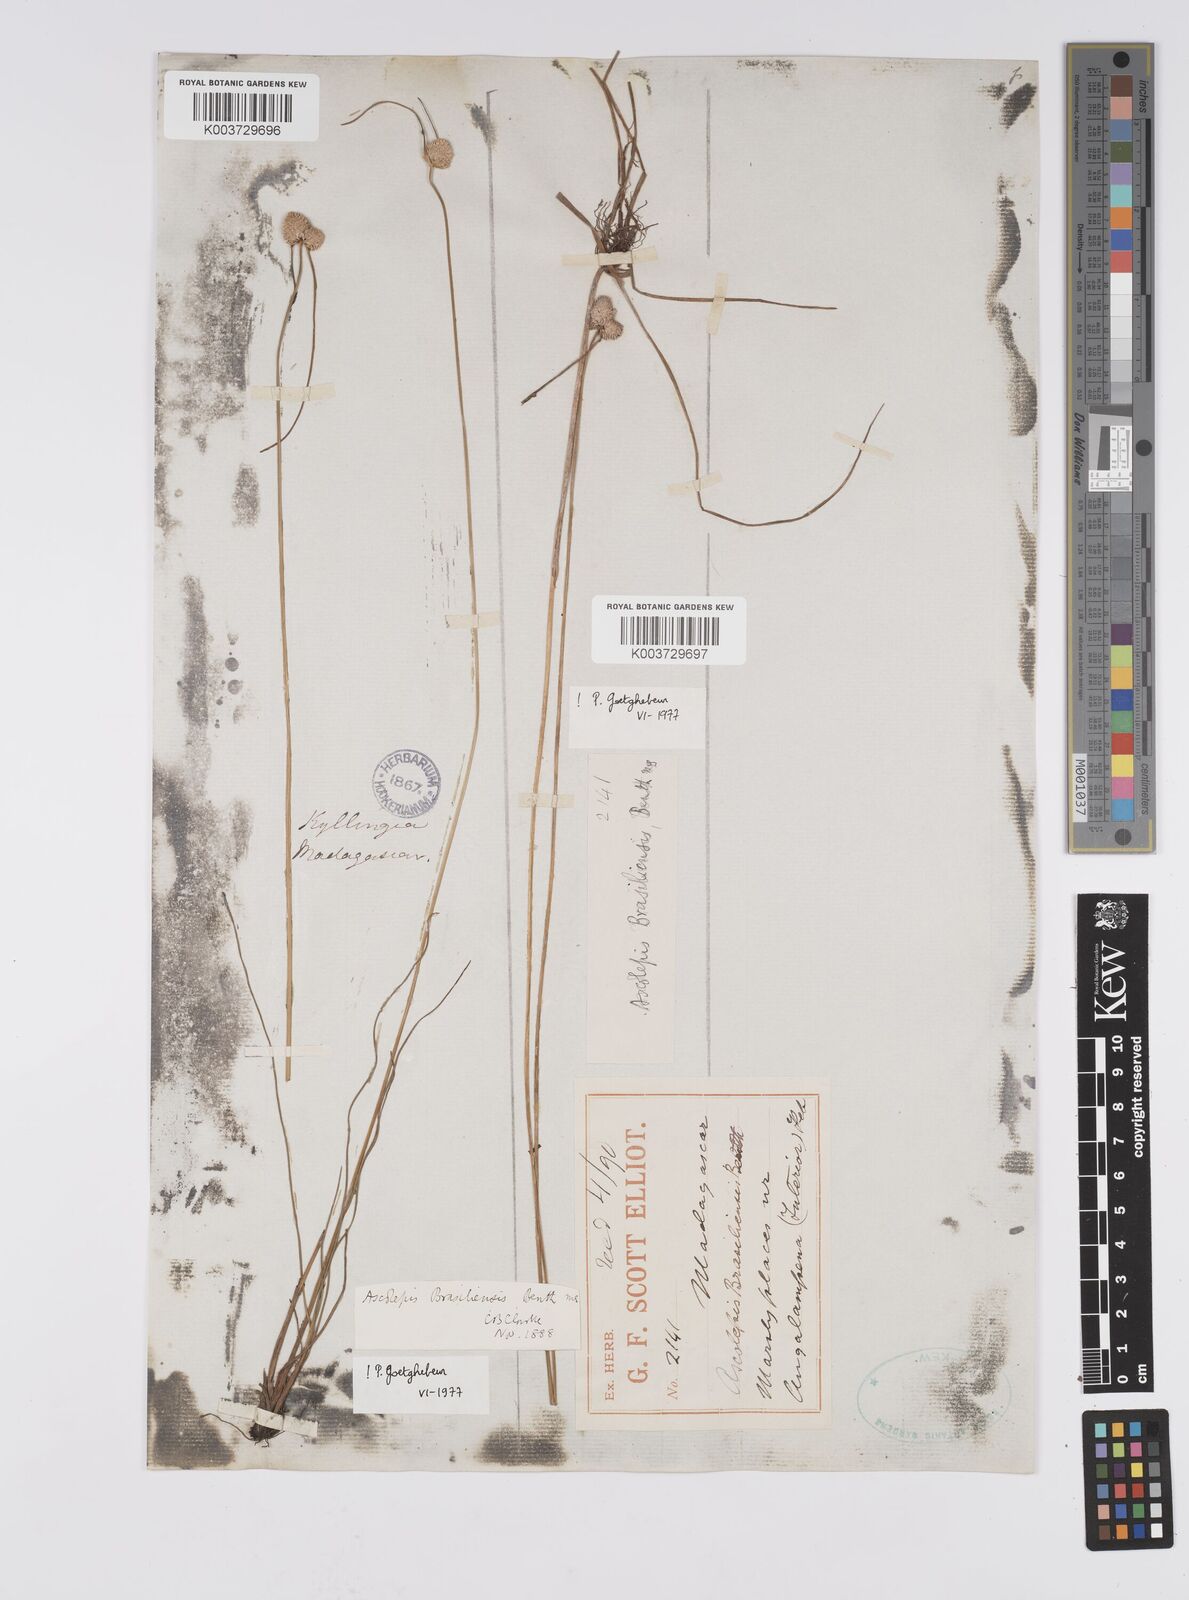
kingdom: Plantae
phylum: Tracheophyta
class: Liliopsida
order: Poales
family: Cyperaceae
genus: Cyperus
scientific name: Cyperus brasiliensis
